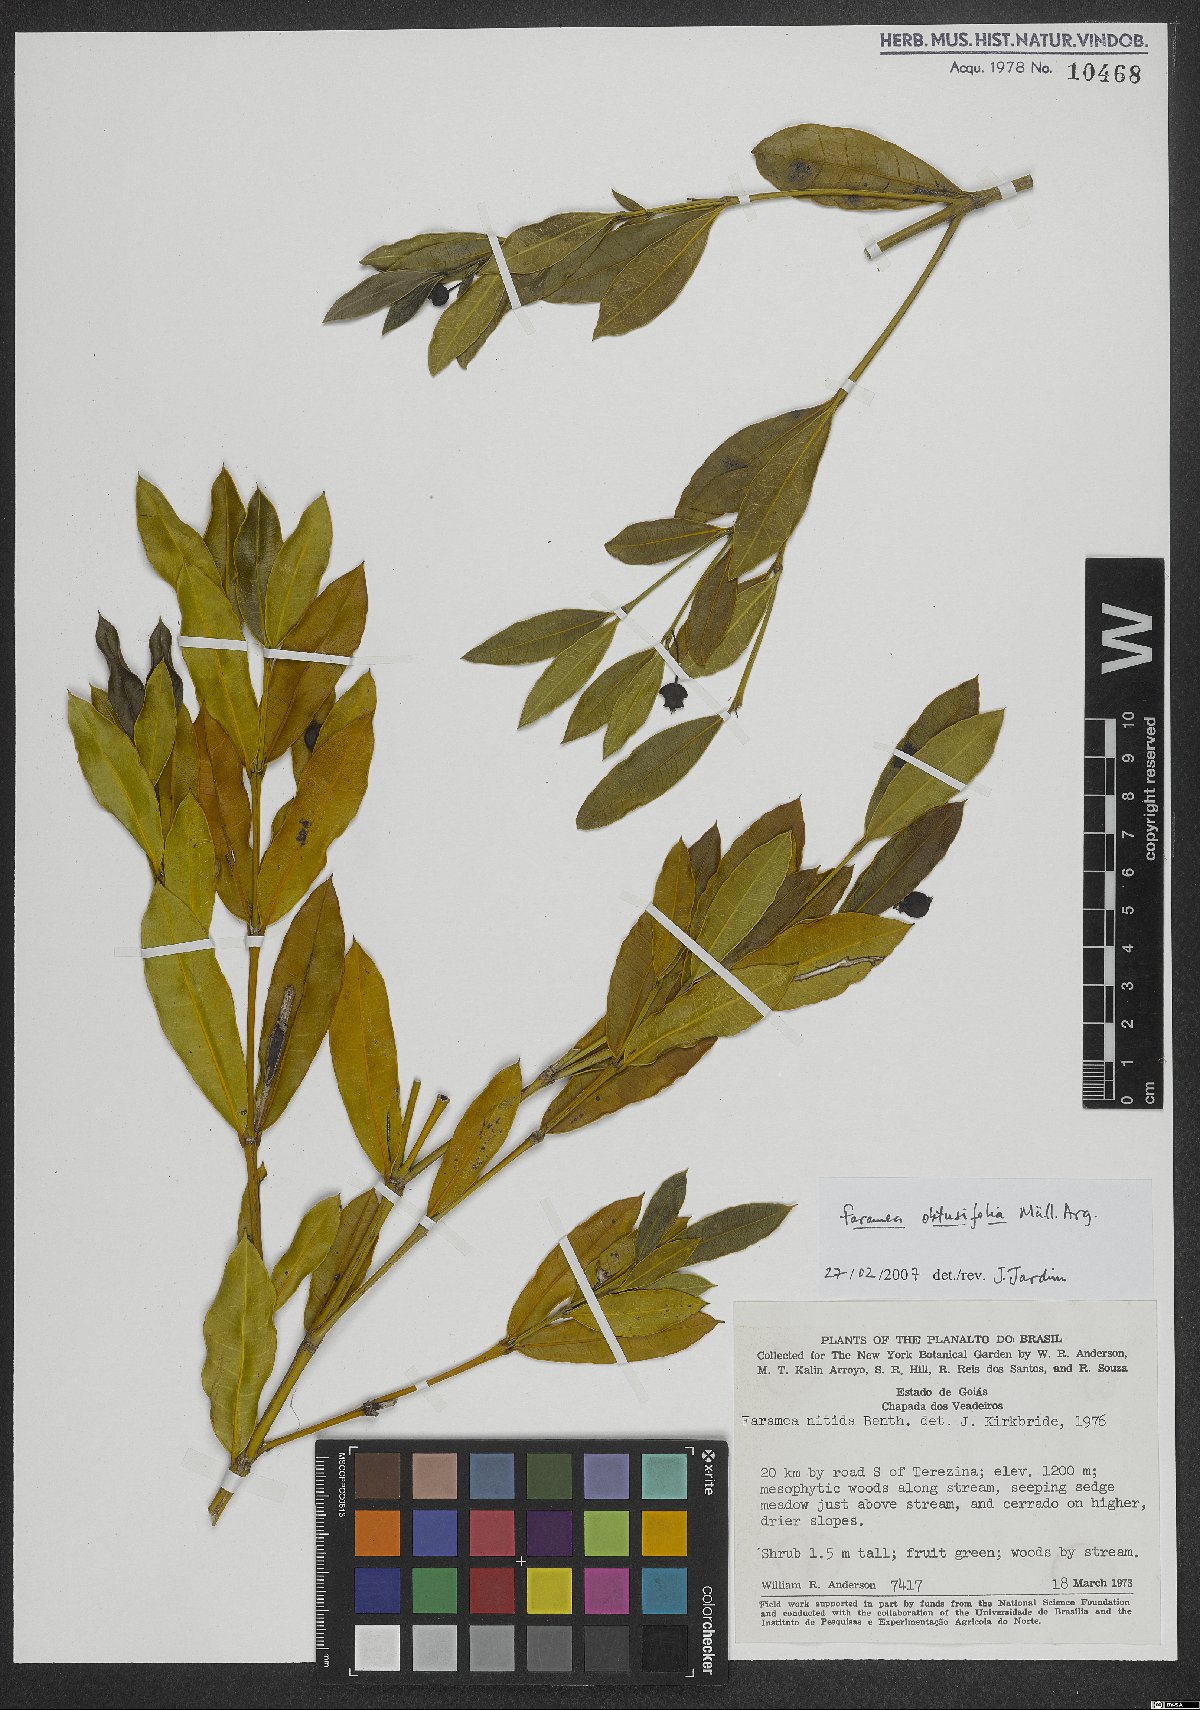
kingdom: Plantae
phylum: Tracheophyta
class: Magnoliopsida
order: Gentianales
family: Rubiaceae
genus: Faramea
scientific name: Faramea obtusifolia
